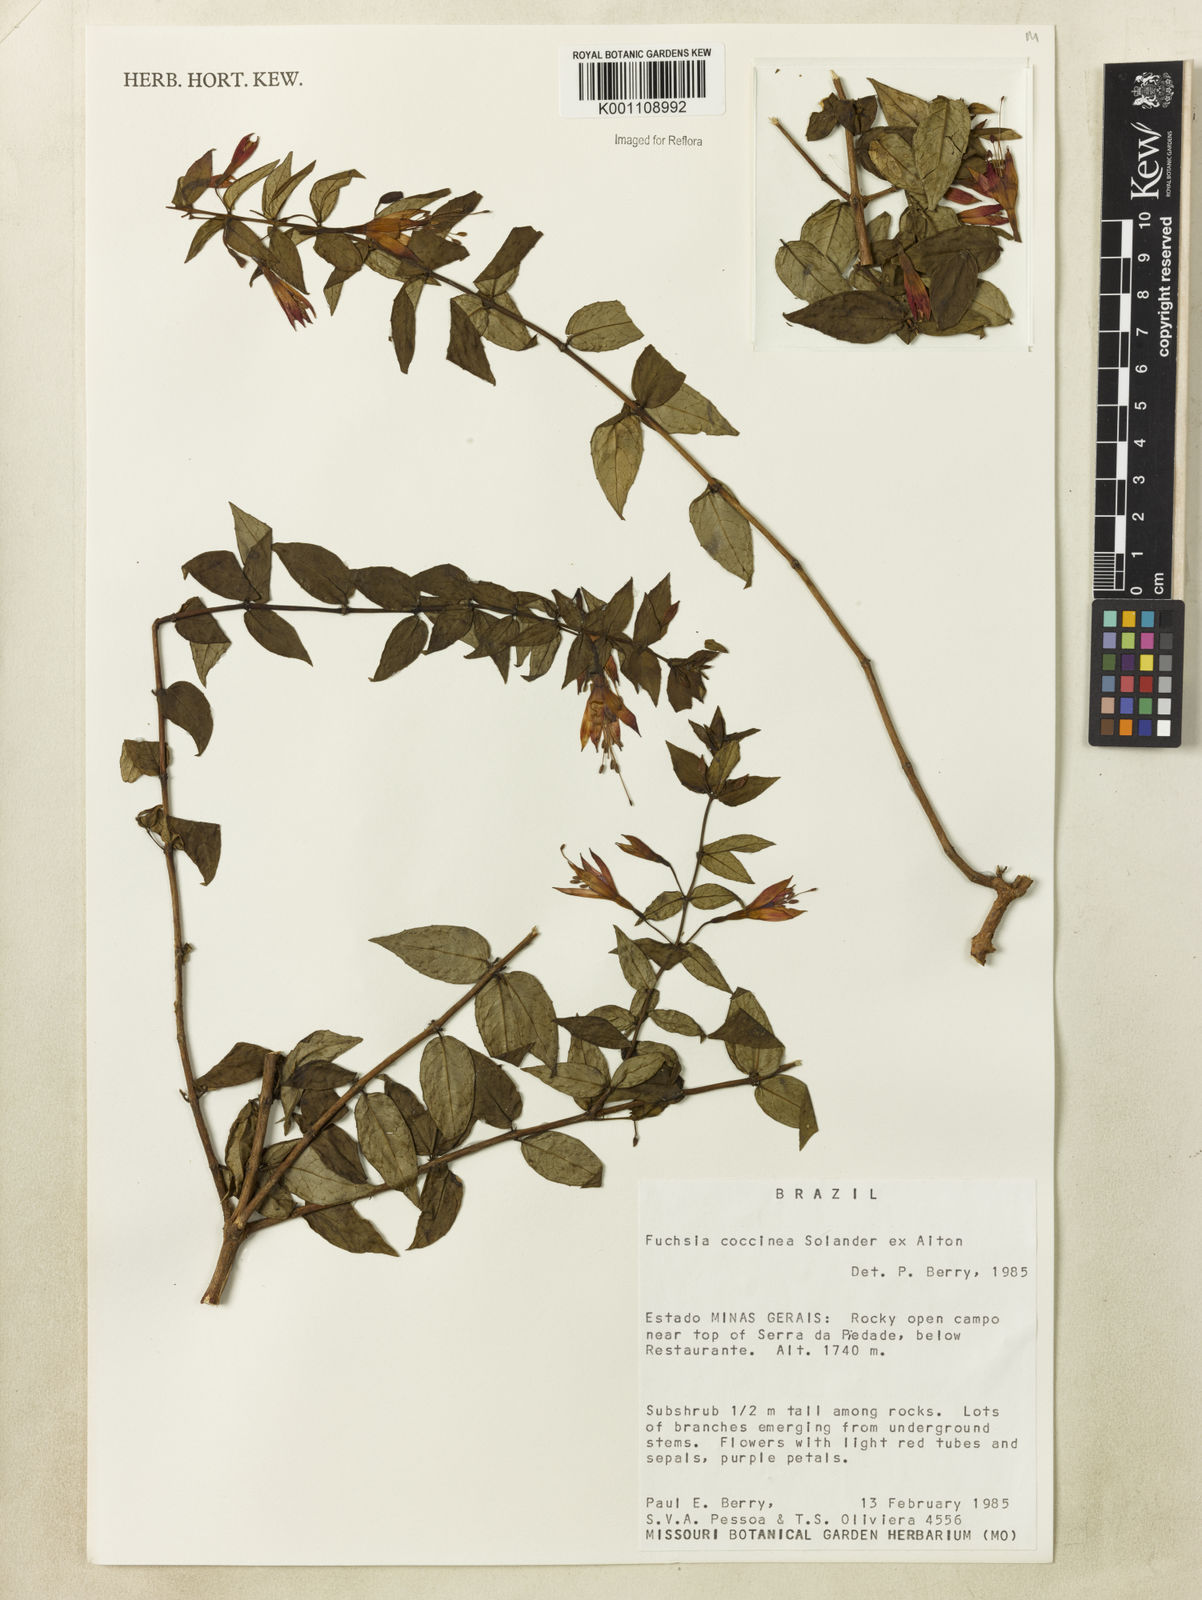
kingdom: Plantae
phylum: Tracheophyta
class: Magnoliopsida
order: Myrtales
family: Onagraceae
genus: Fuchsia
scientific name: Fuchsia
